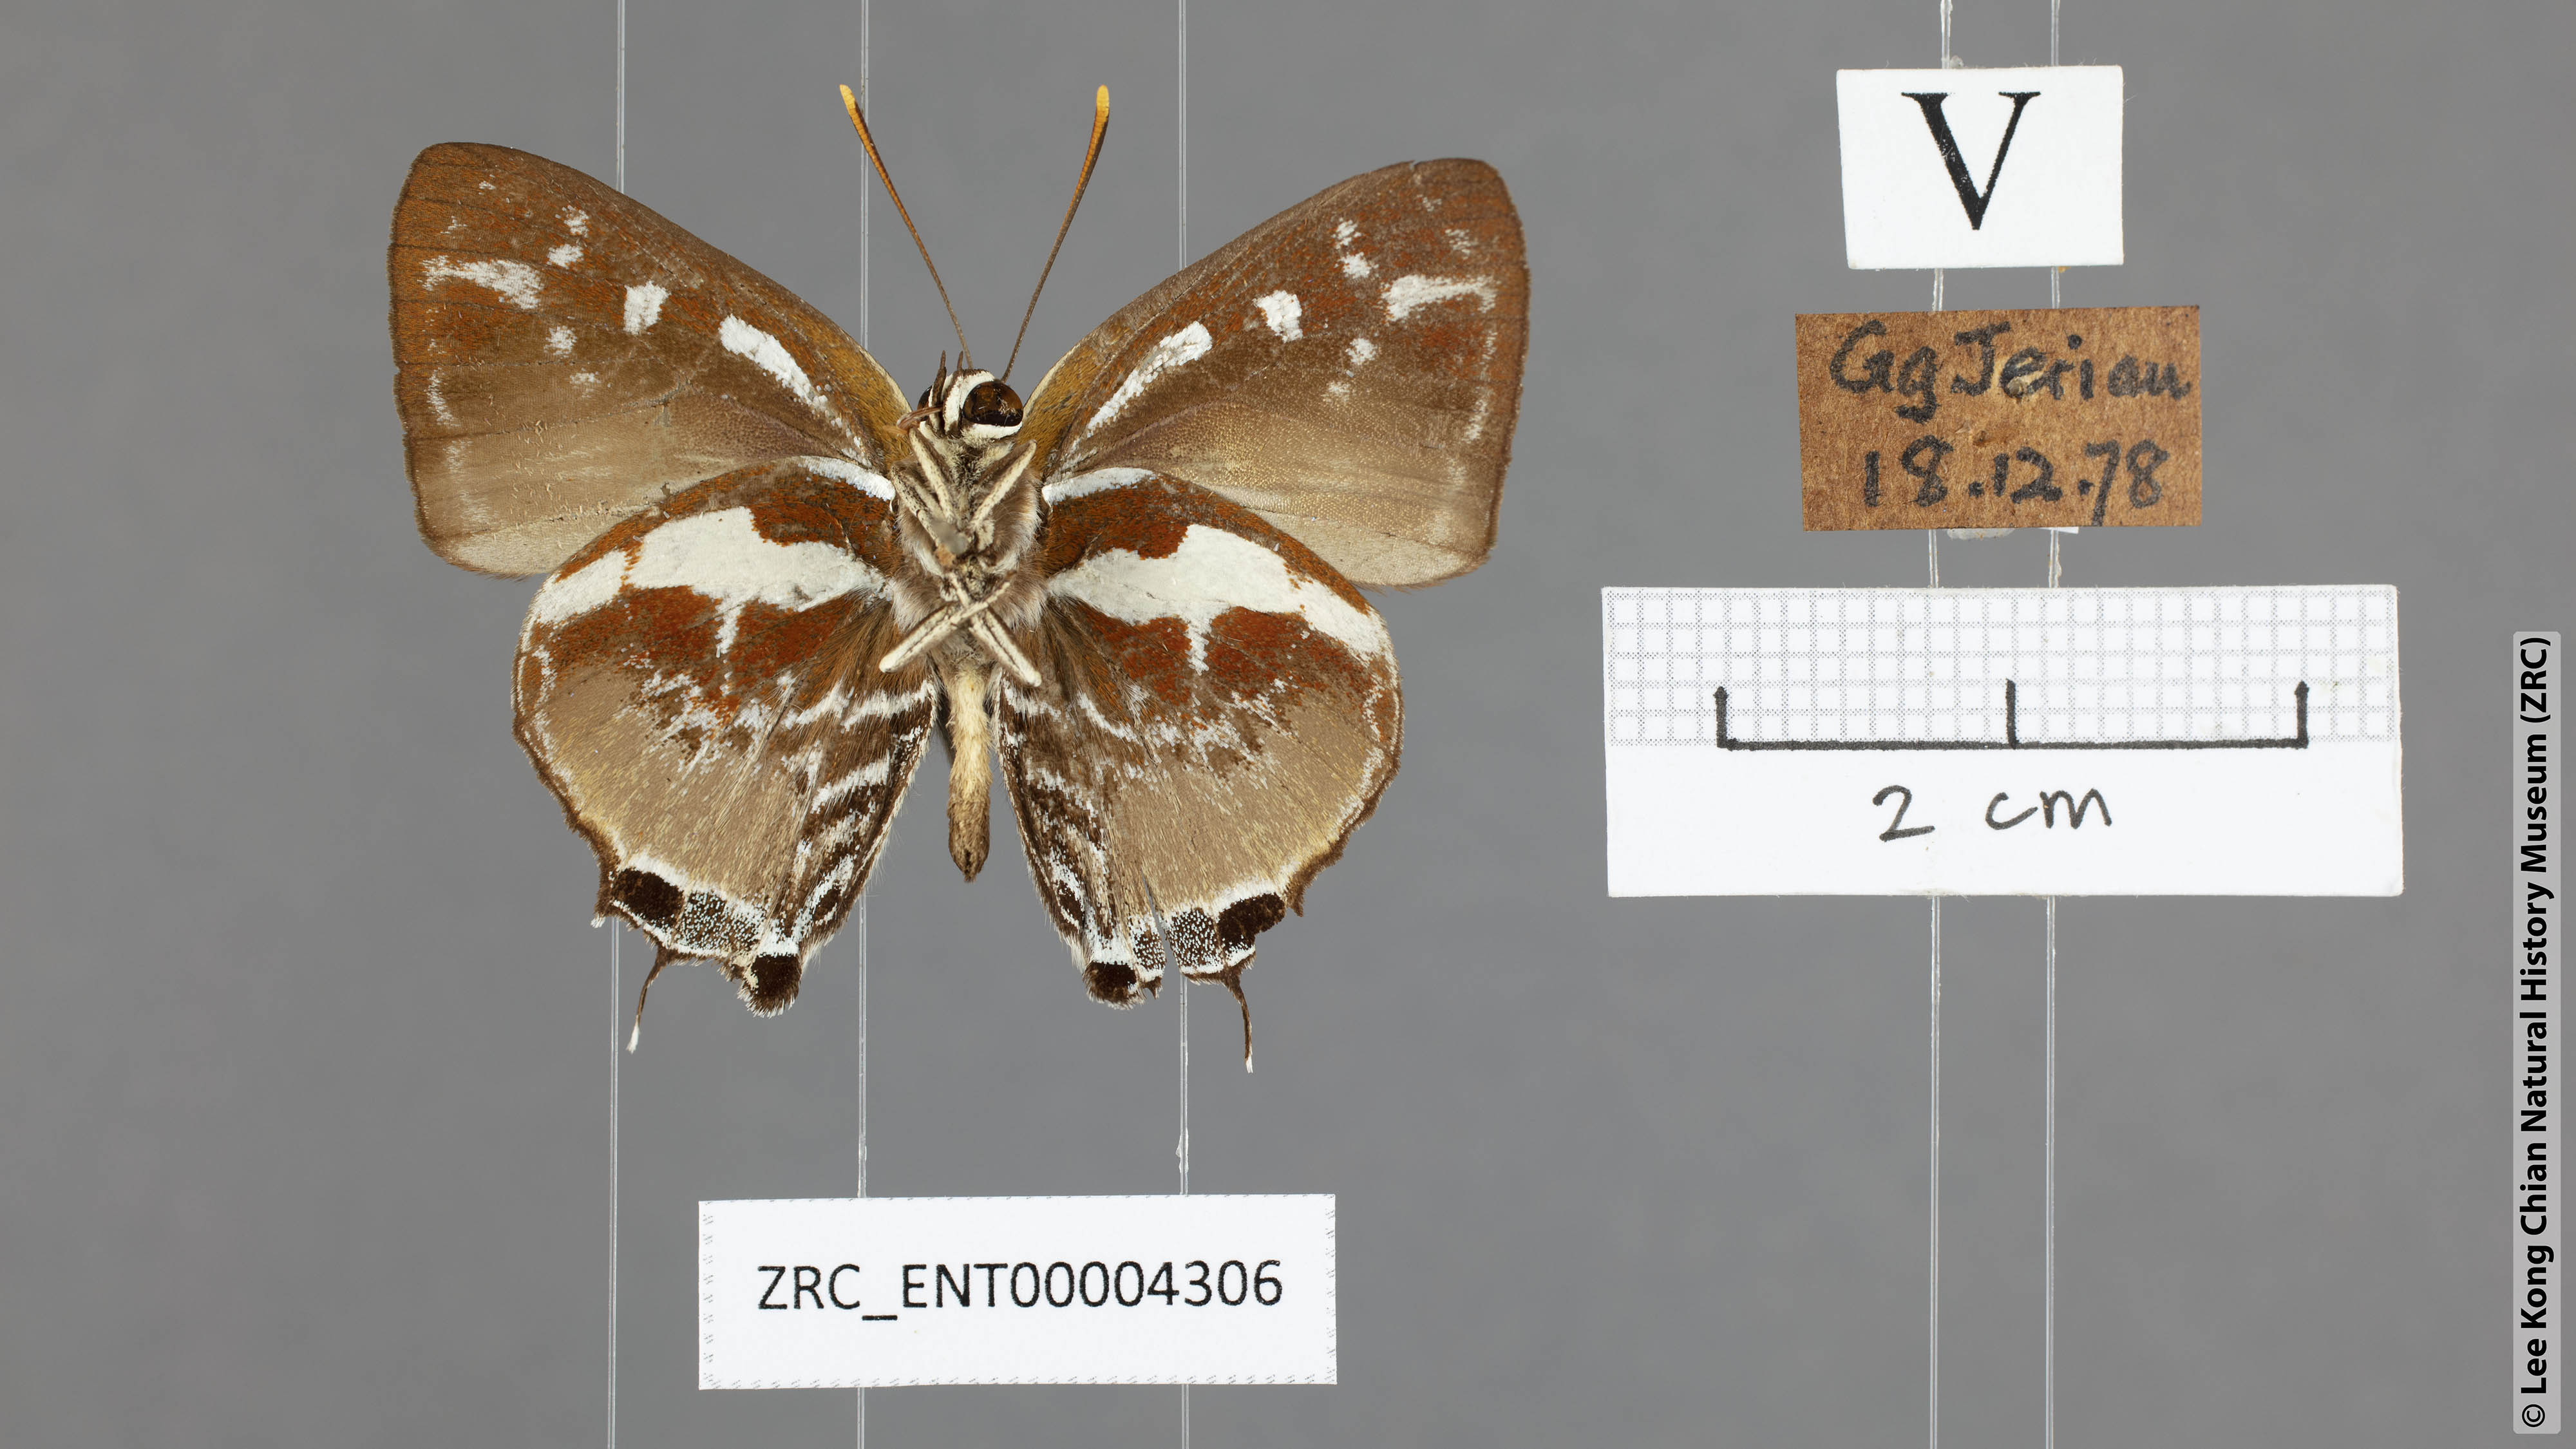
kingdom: Animalia
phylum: Arthropoda
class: Insecta
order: Lepidoptera
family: Lycaenidae
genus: Iraota
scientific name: Iraota rochana
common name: Scarce silverstreak blue
